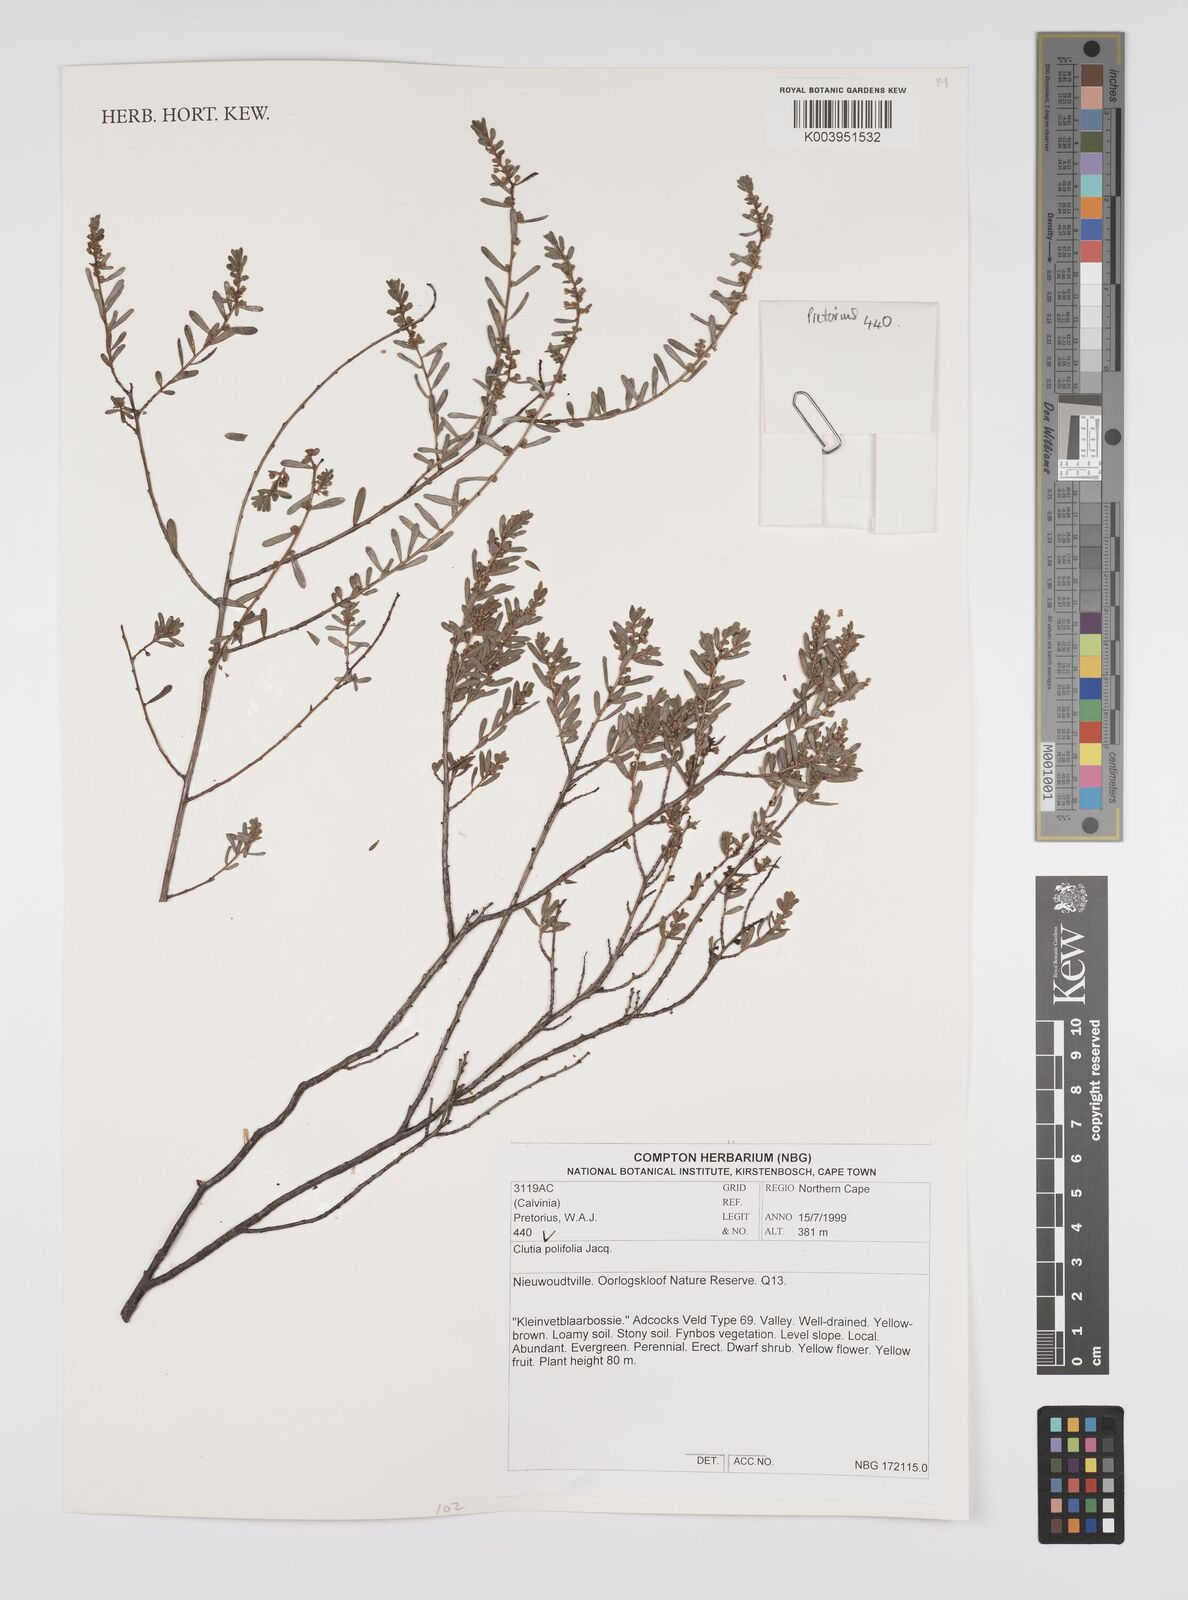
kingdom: Plantae
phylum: Tracheophyta
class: Magnoliopsida
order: Malpighiales
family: Peraceae
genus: Clutia
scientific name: Clutia
